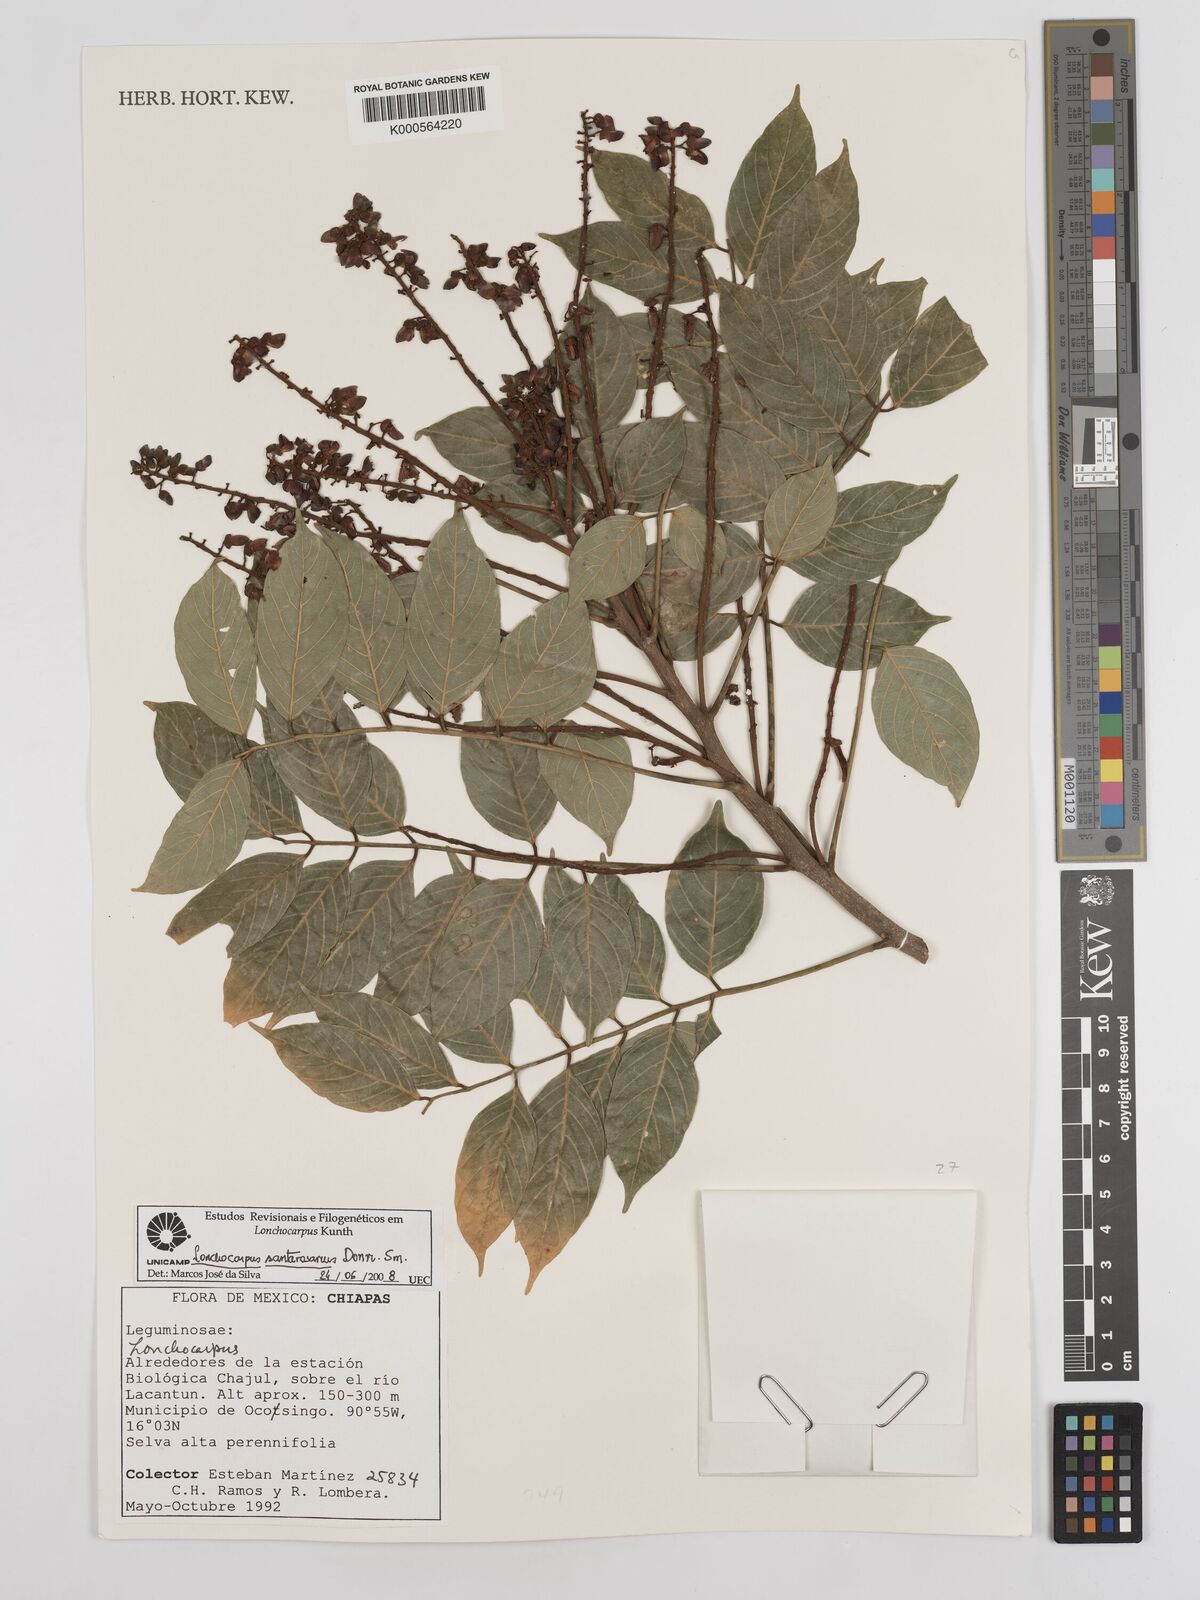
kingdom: Plantae
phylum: Tracheophyta
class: Magnoliopsida
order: Fabales
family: Fabaceae
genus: Lonchocarpus
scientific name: Lonchocarpus santarosanus
